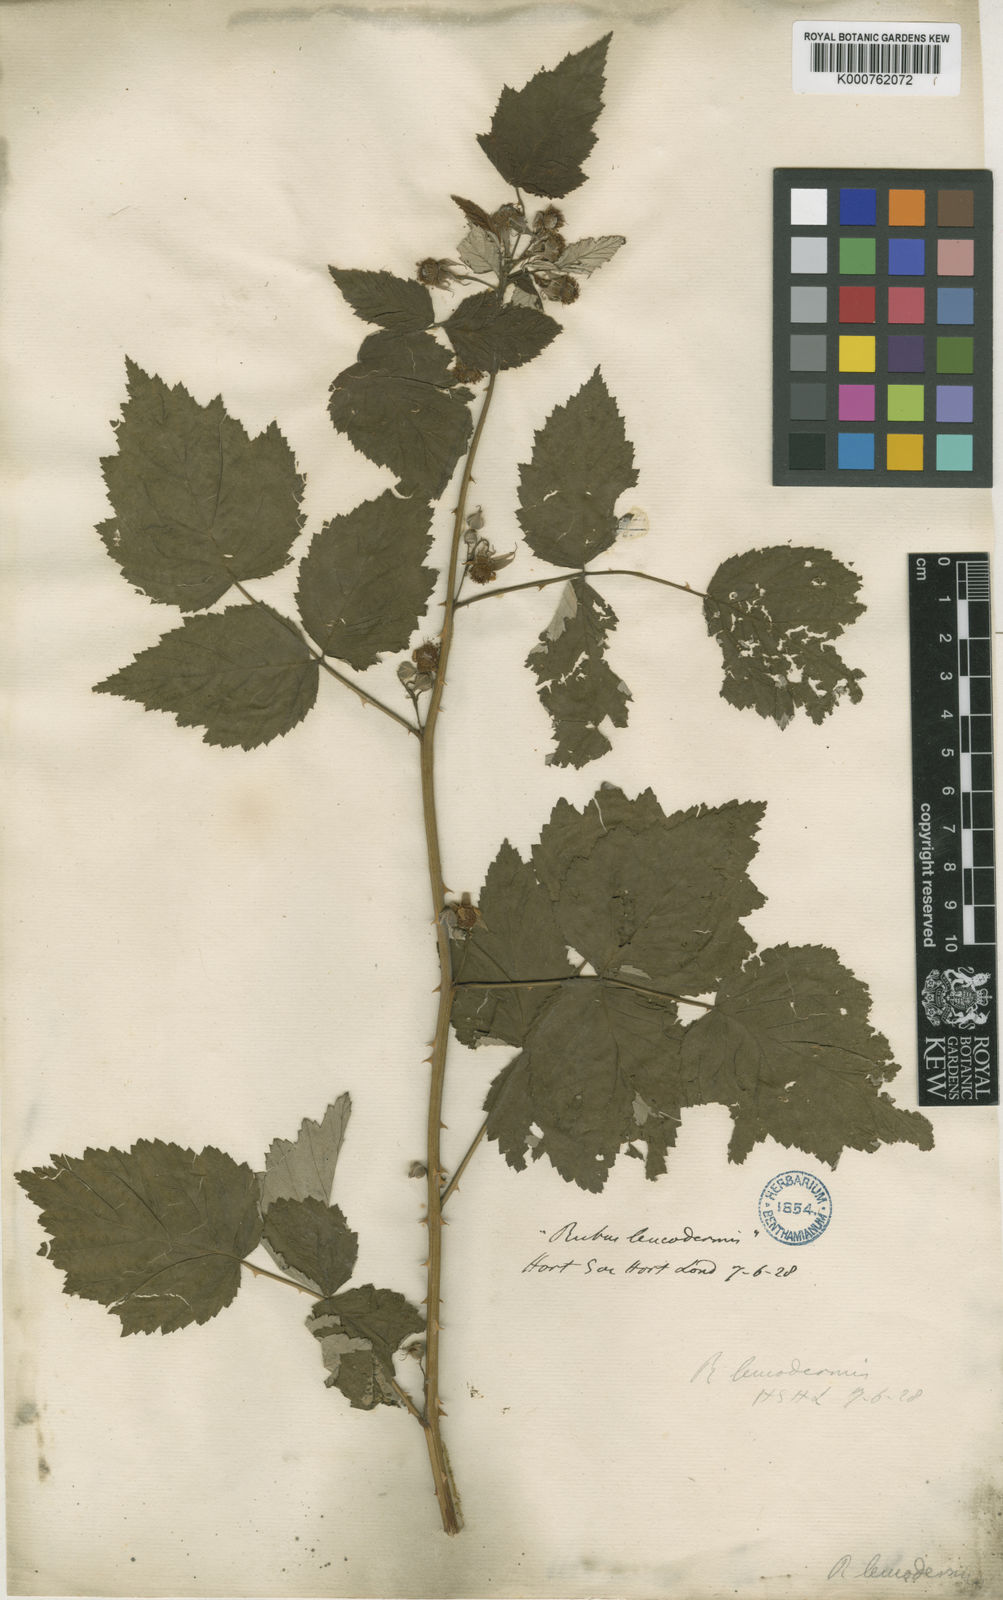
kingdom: Plantae
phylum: Tracheophyta
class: Magnoliopsida
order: Rosales
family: Rosaceae
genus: Rubus
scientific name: Rubus
